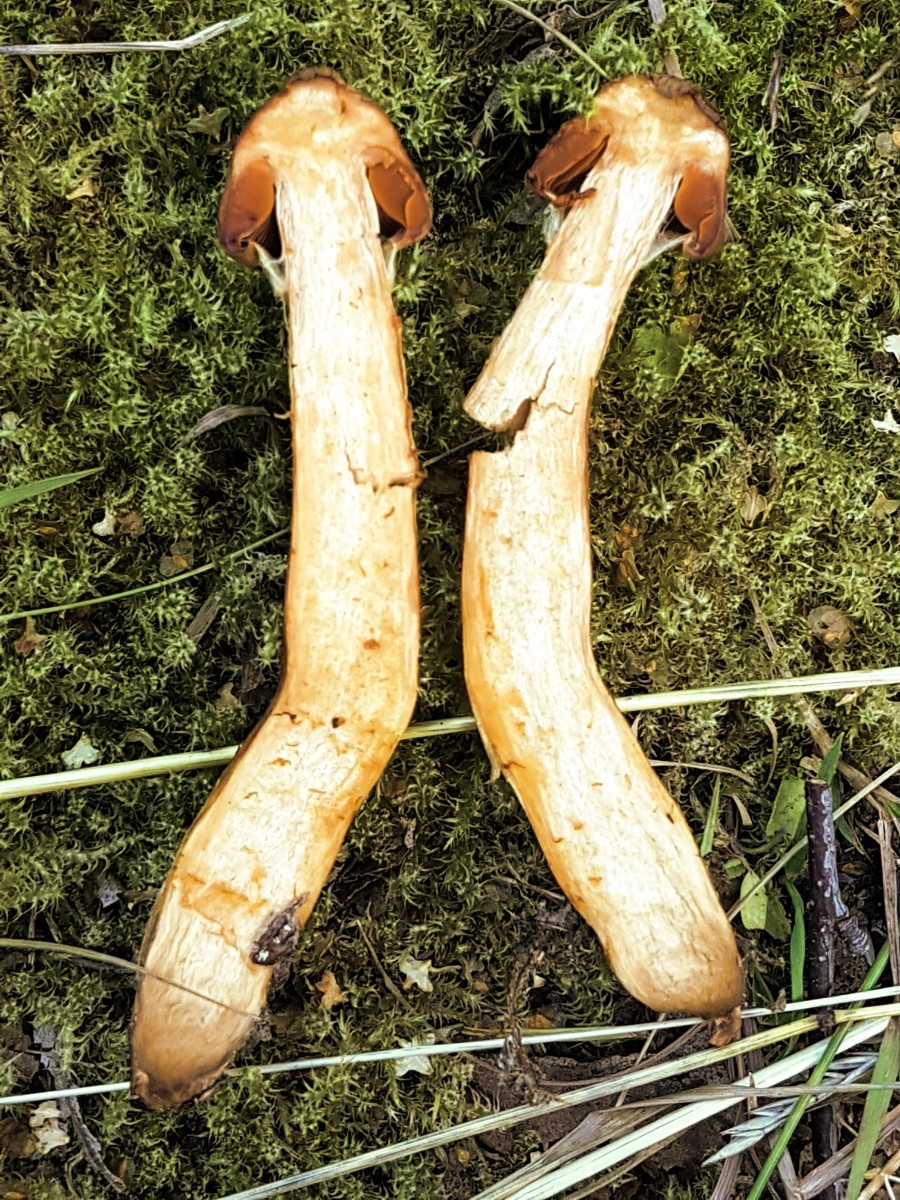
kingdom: Fungi
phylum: Basidiomycota
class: Agaricomycetes
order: Agaricales
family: Cortinariaceae
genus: Cortinarius
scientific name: Cortinarius rubellus
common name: puklet gift-slørhat
